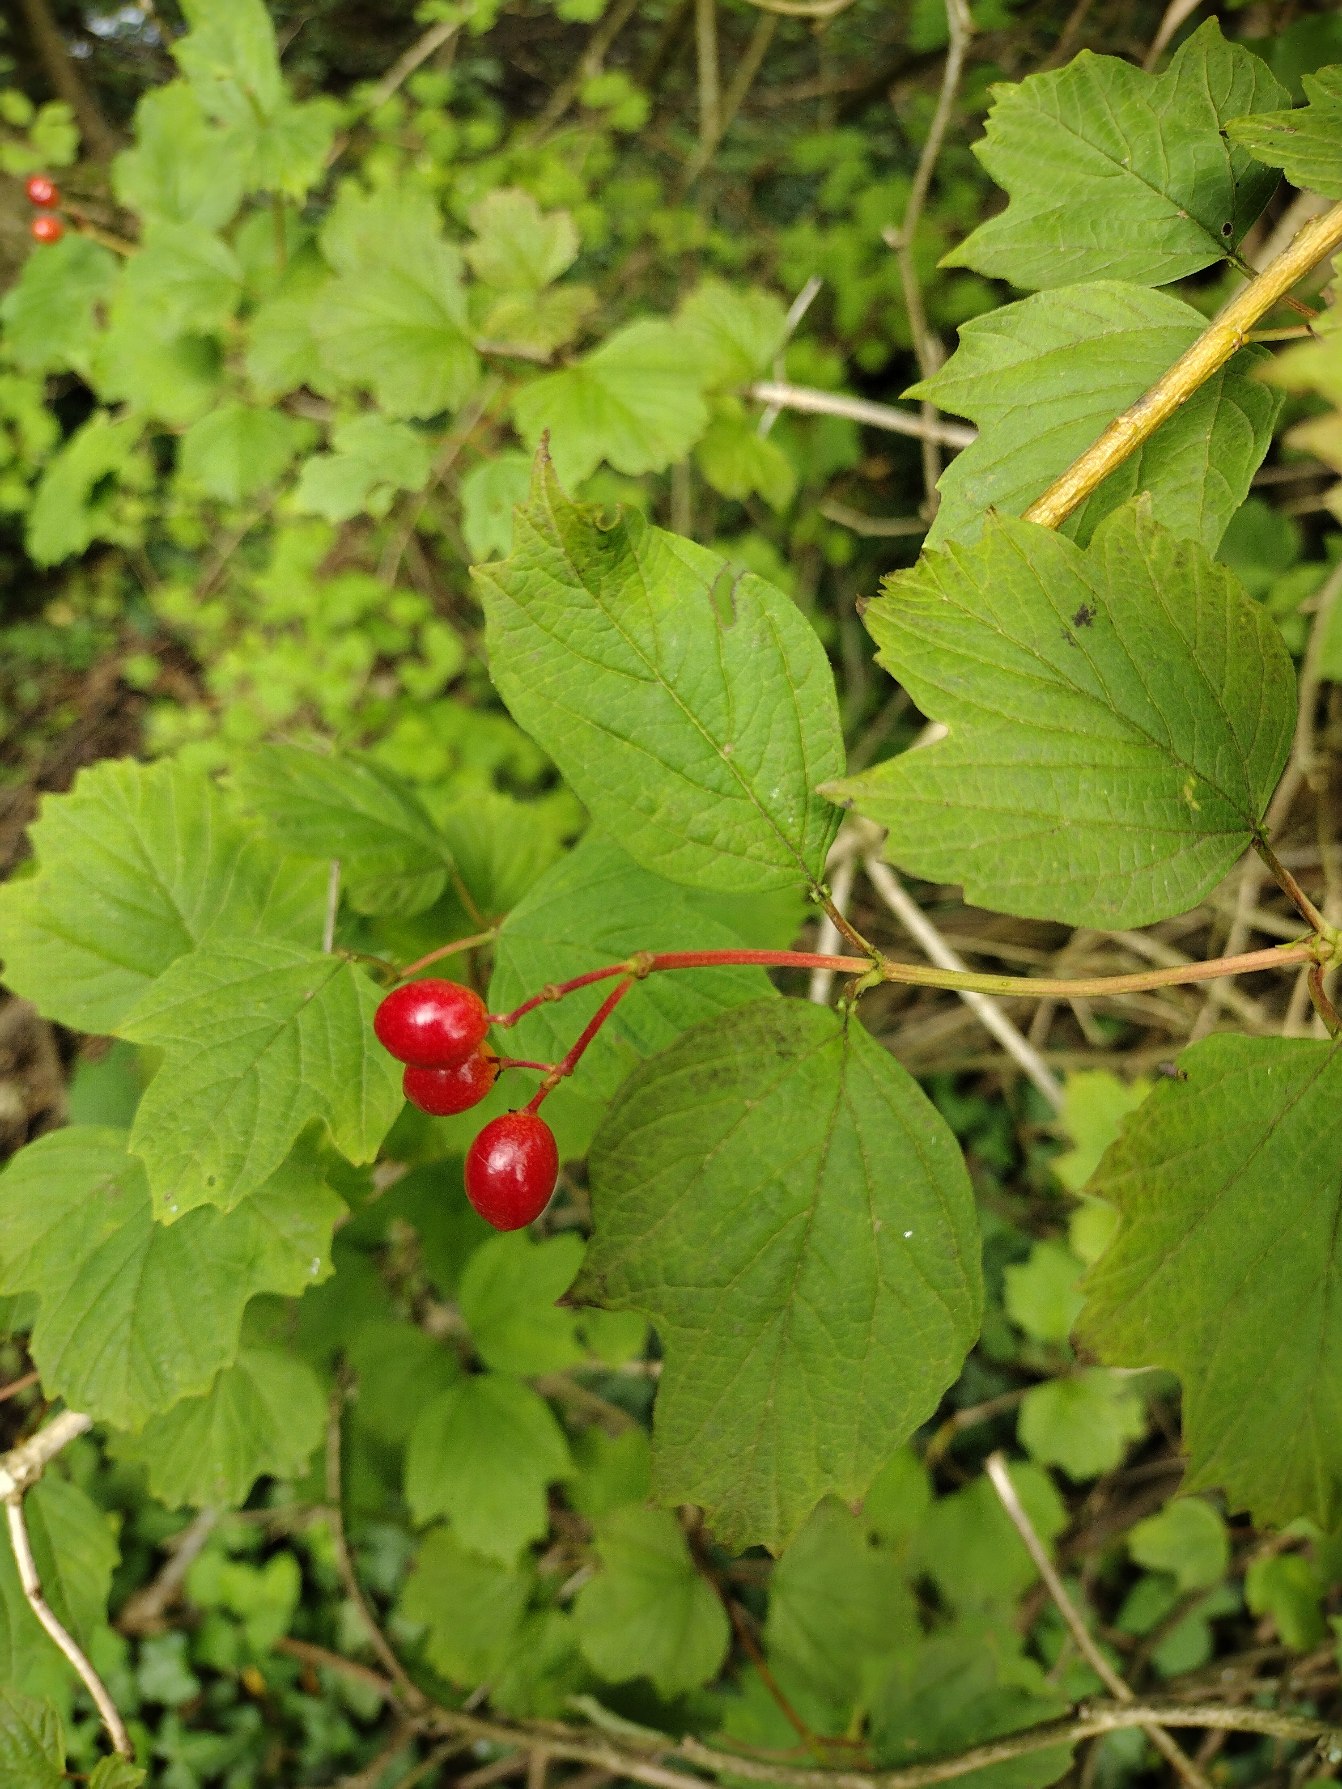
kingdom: Plantae
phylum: Tracheophyta
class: Magnoliopsida
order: Dipsacales
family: Viburnaceae
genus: Viburnum
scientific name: Viburnum opulus
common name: Kvalkved
